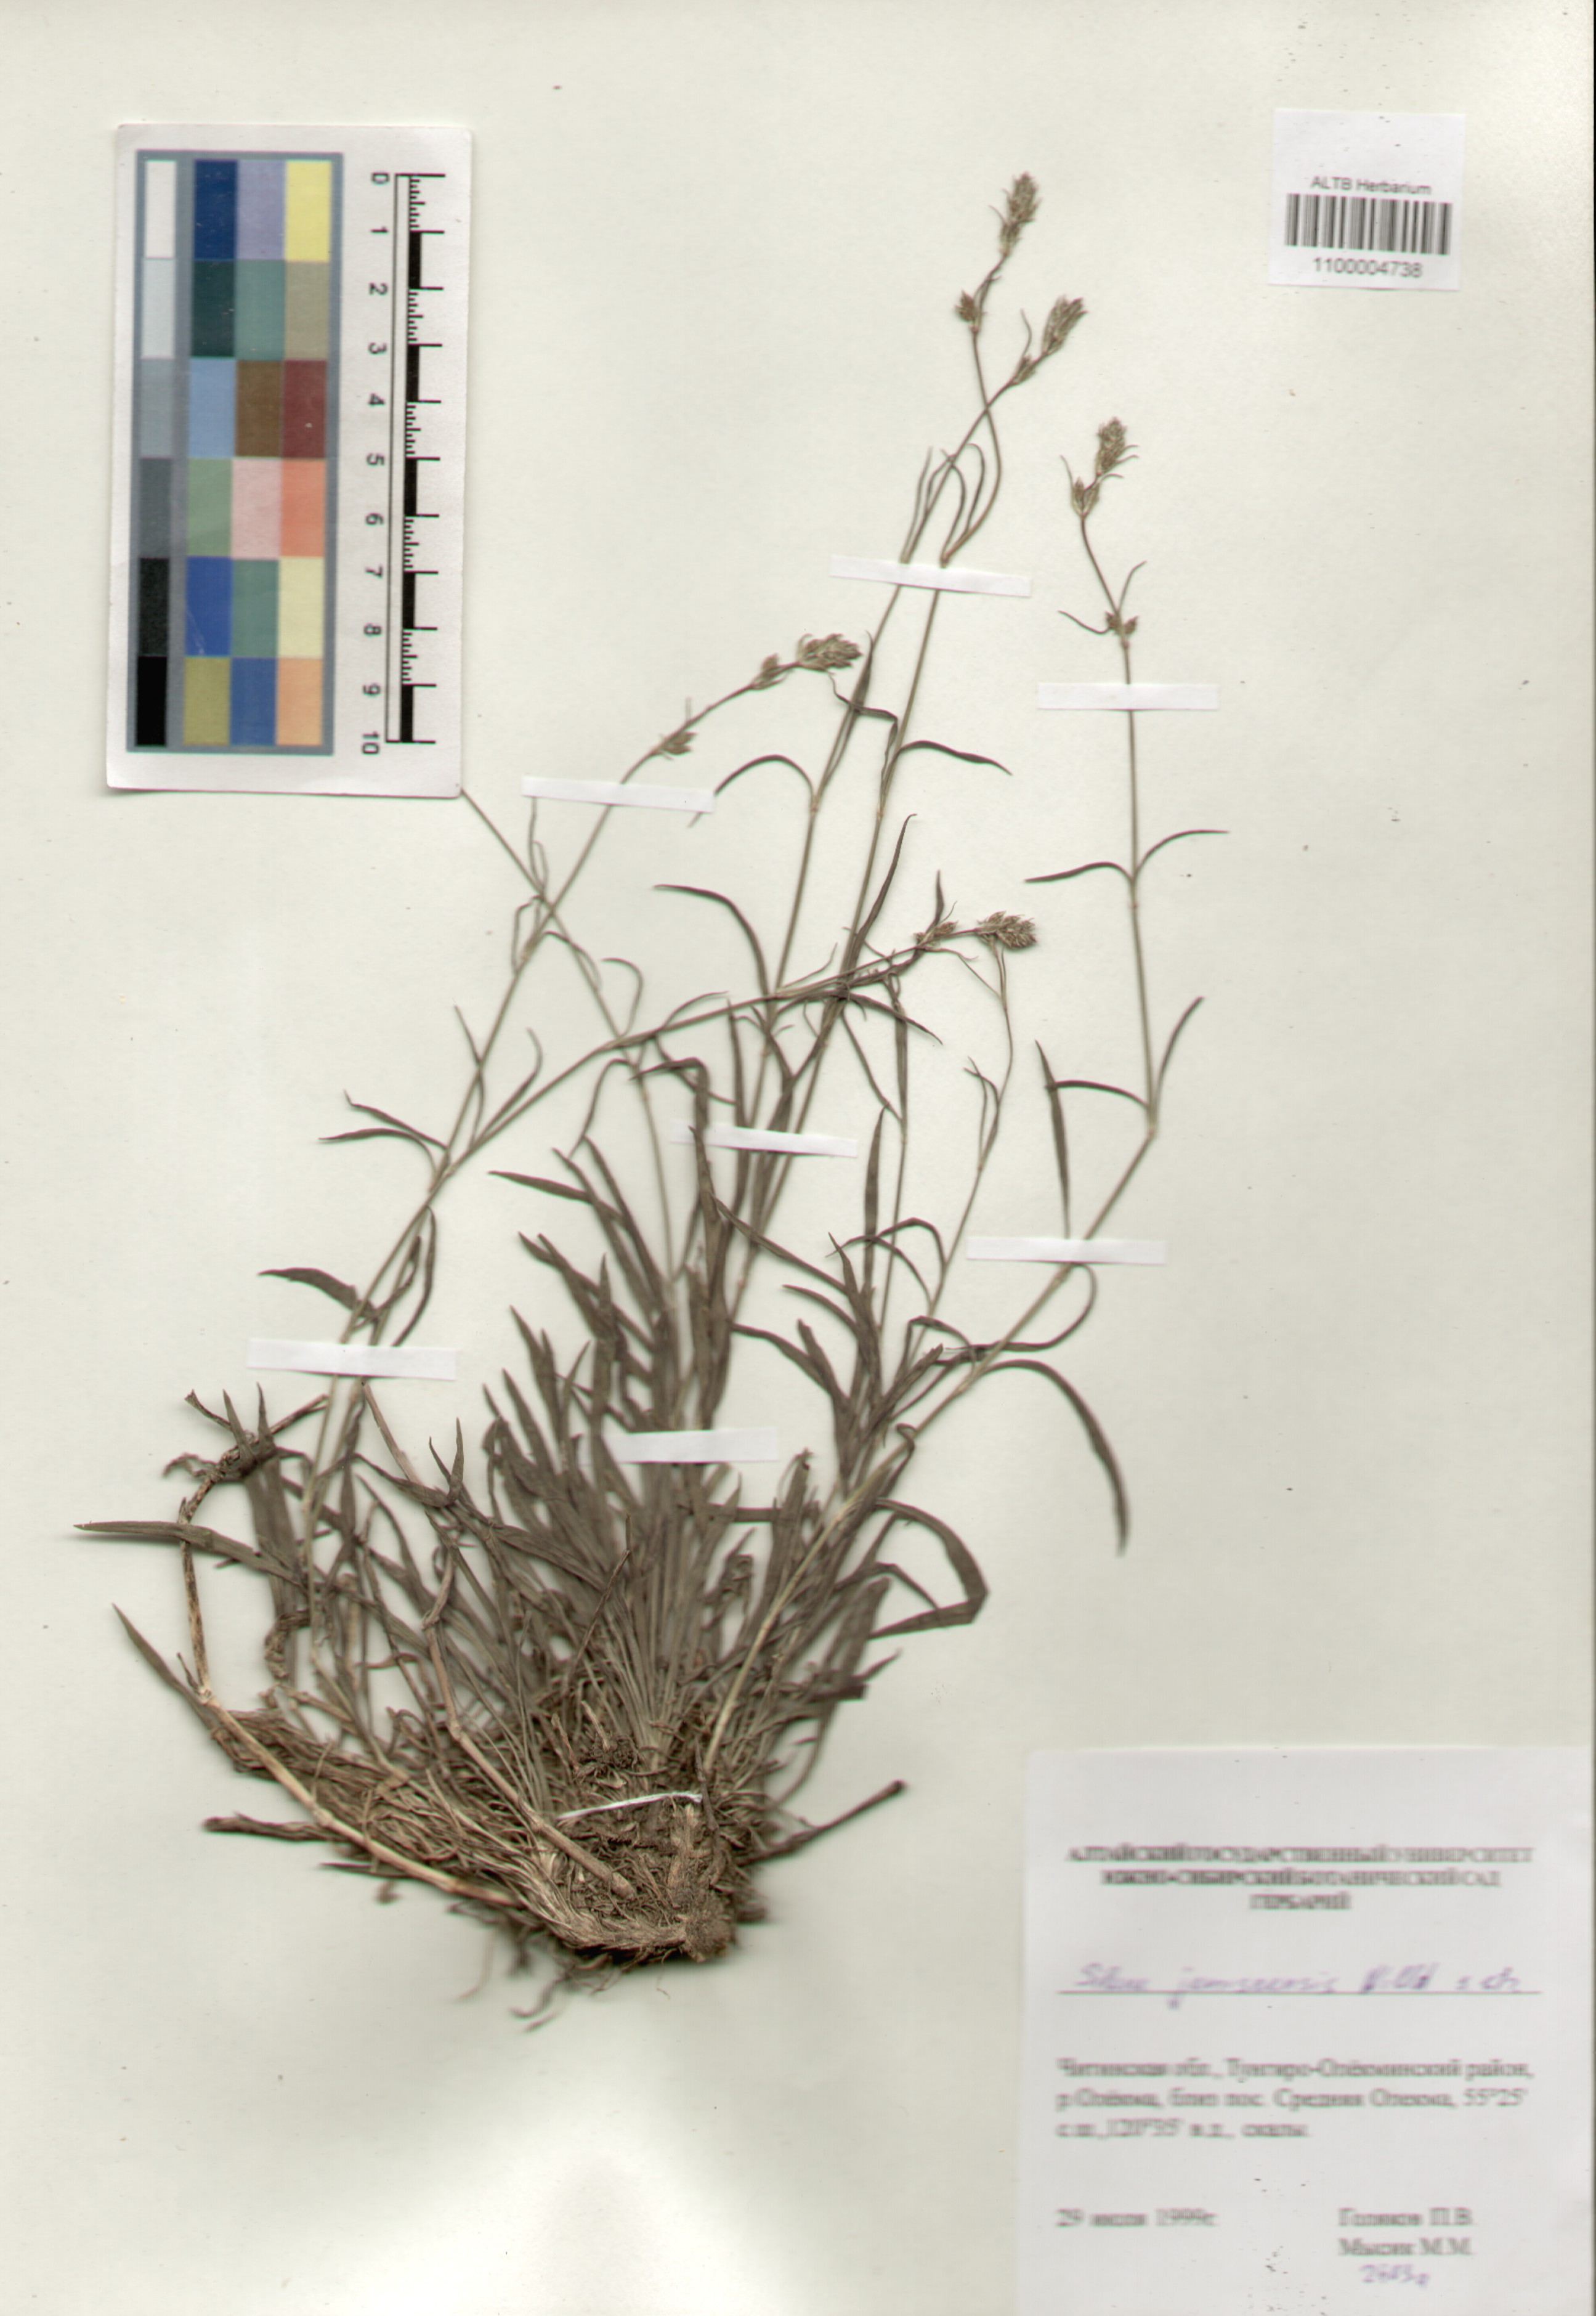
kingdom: Plantae
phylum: Tracheophyta
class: Magnoliopsida
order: Caryophyllales
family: Caryophyllaceae
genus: Silene
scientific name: Silene jeniseensis
